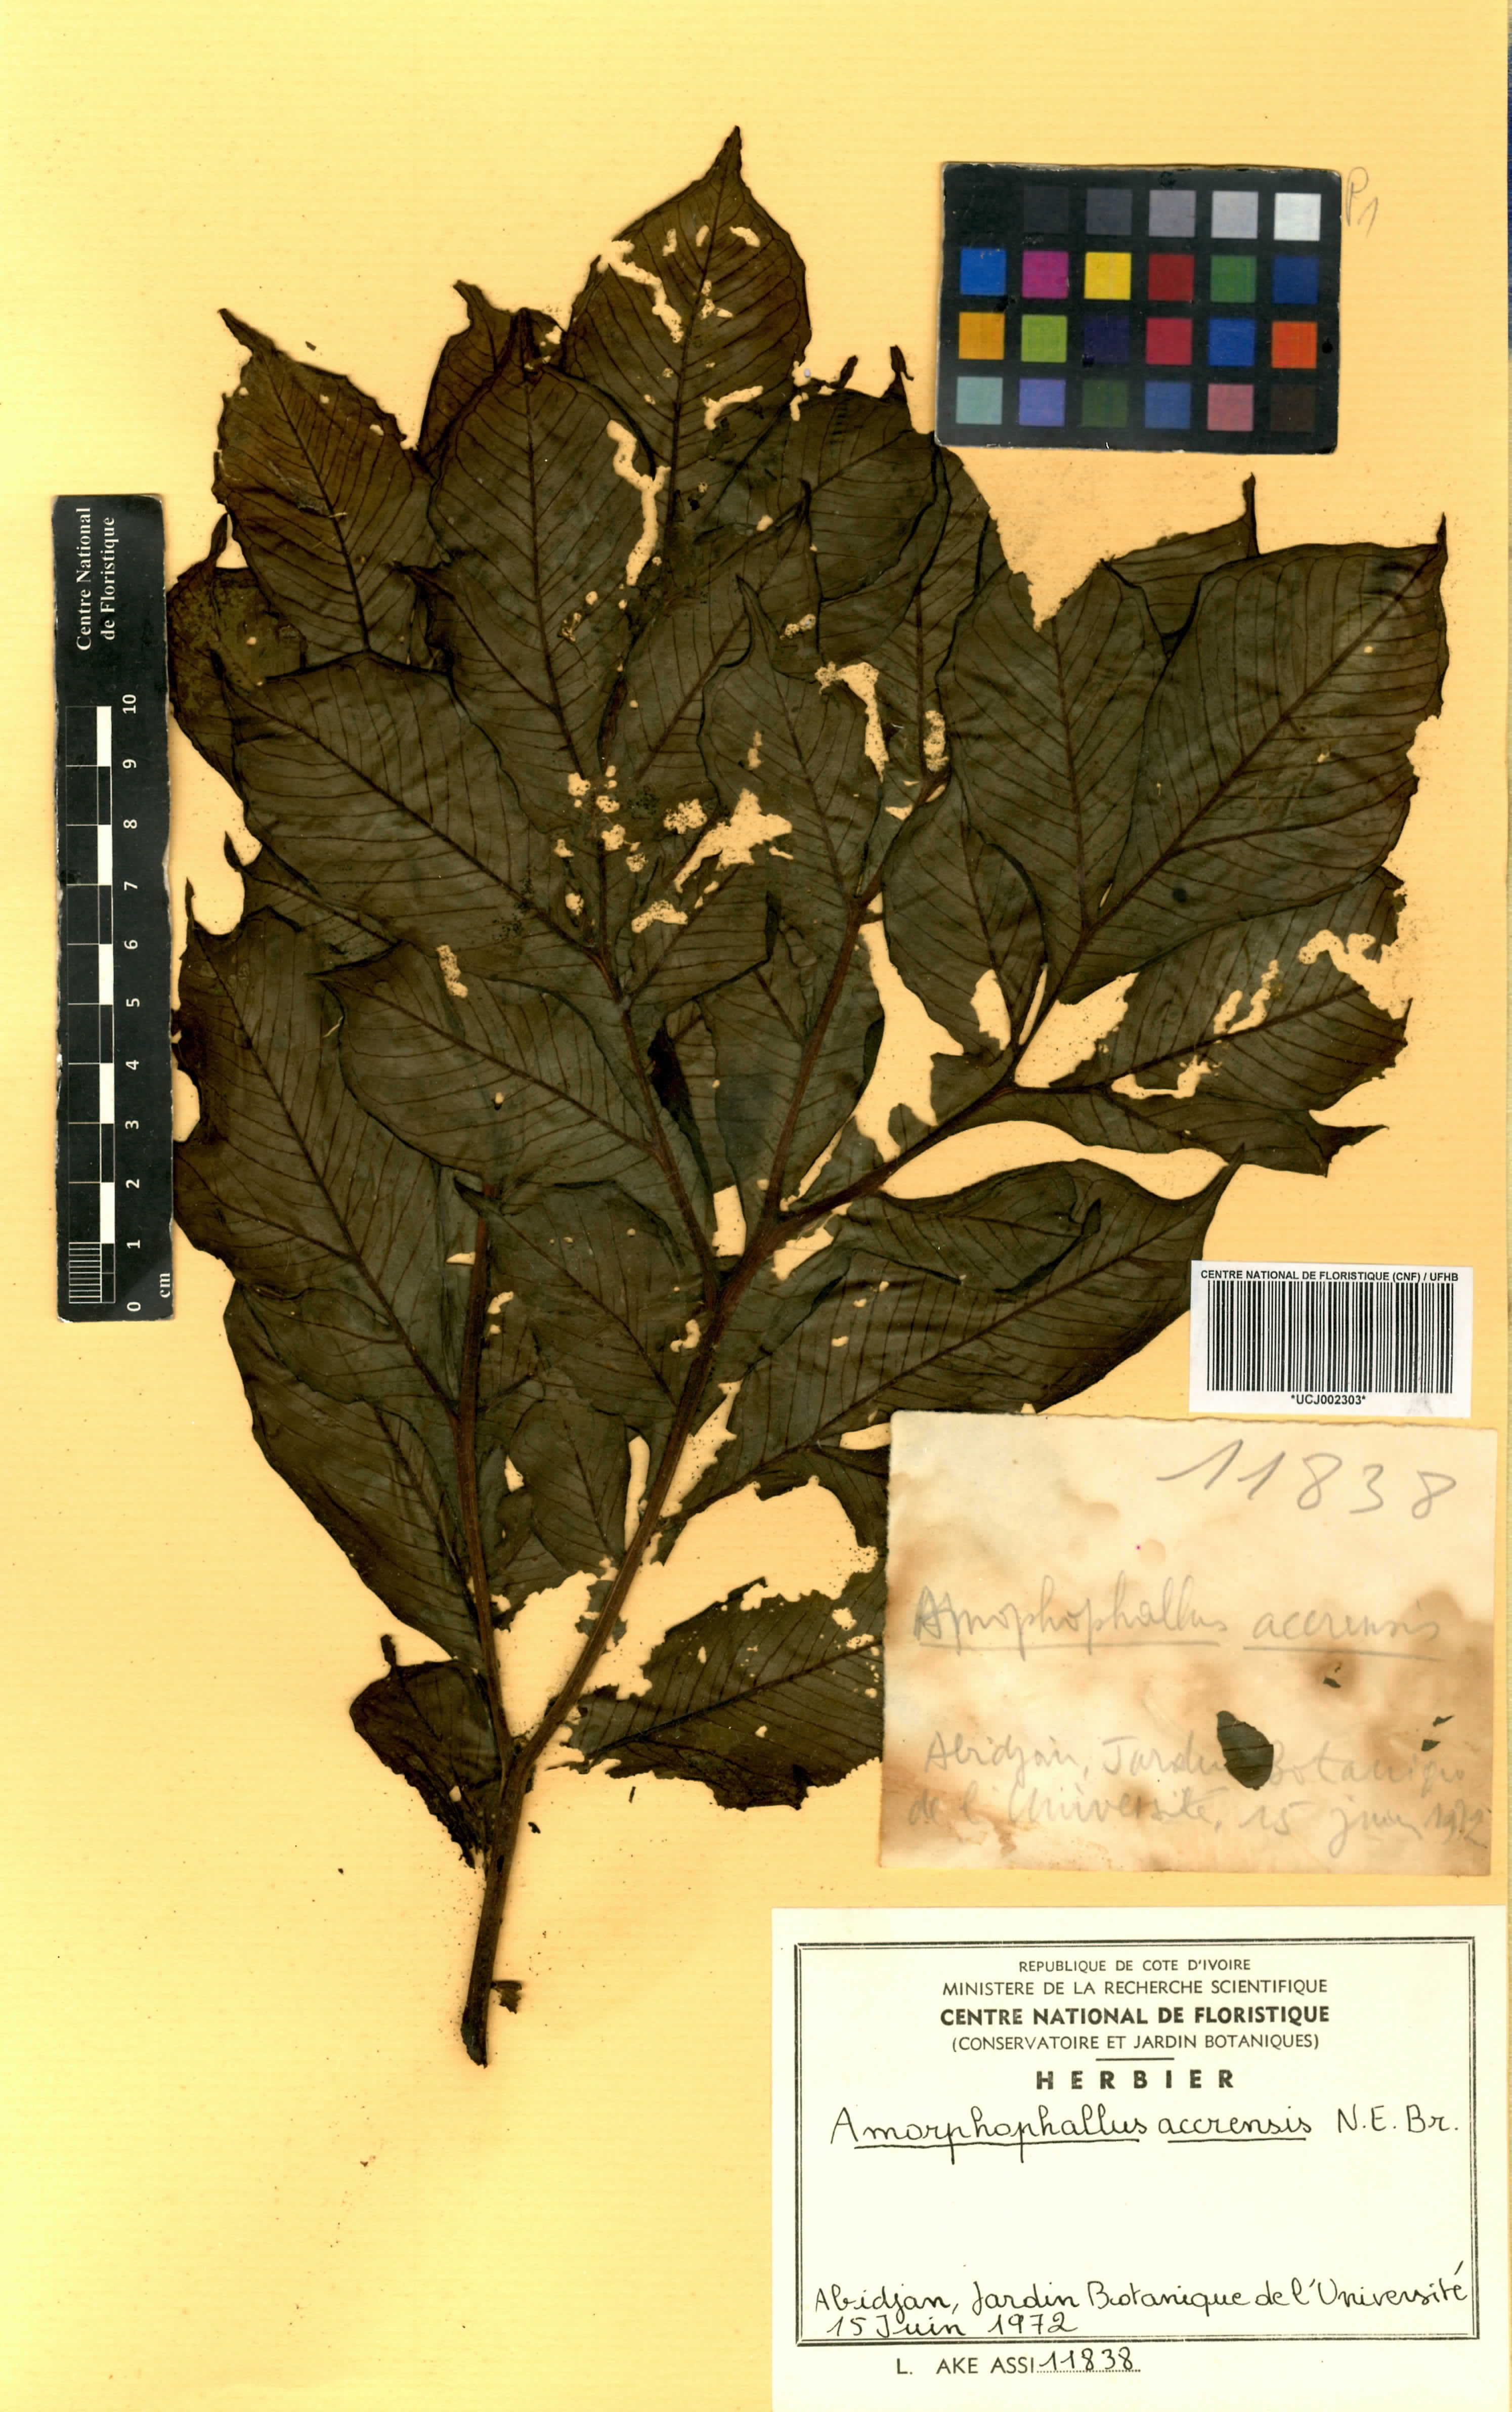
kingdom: Plantae
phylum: Tracheophyta
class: Liliopsida
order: Alismatales
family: Araceae
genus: Amorphophallus
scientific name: Amorphophallus johnsonii
